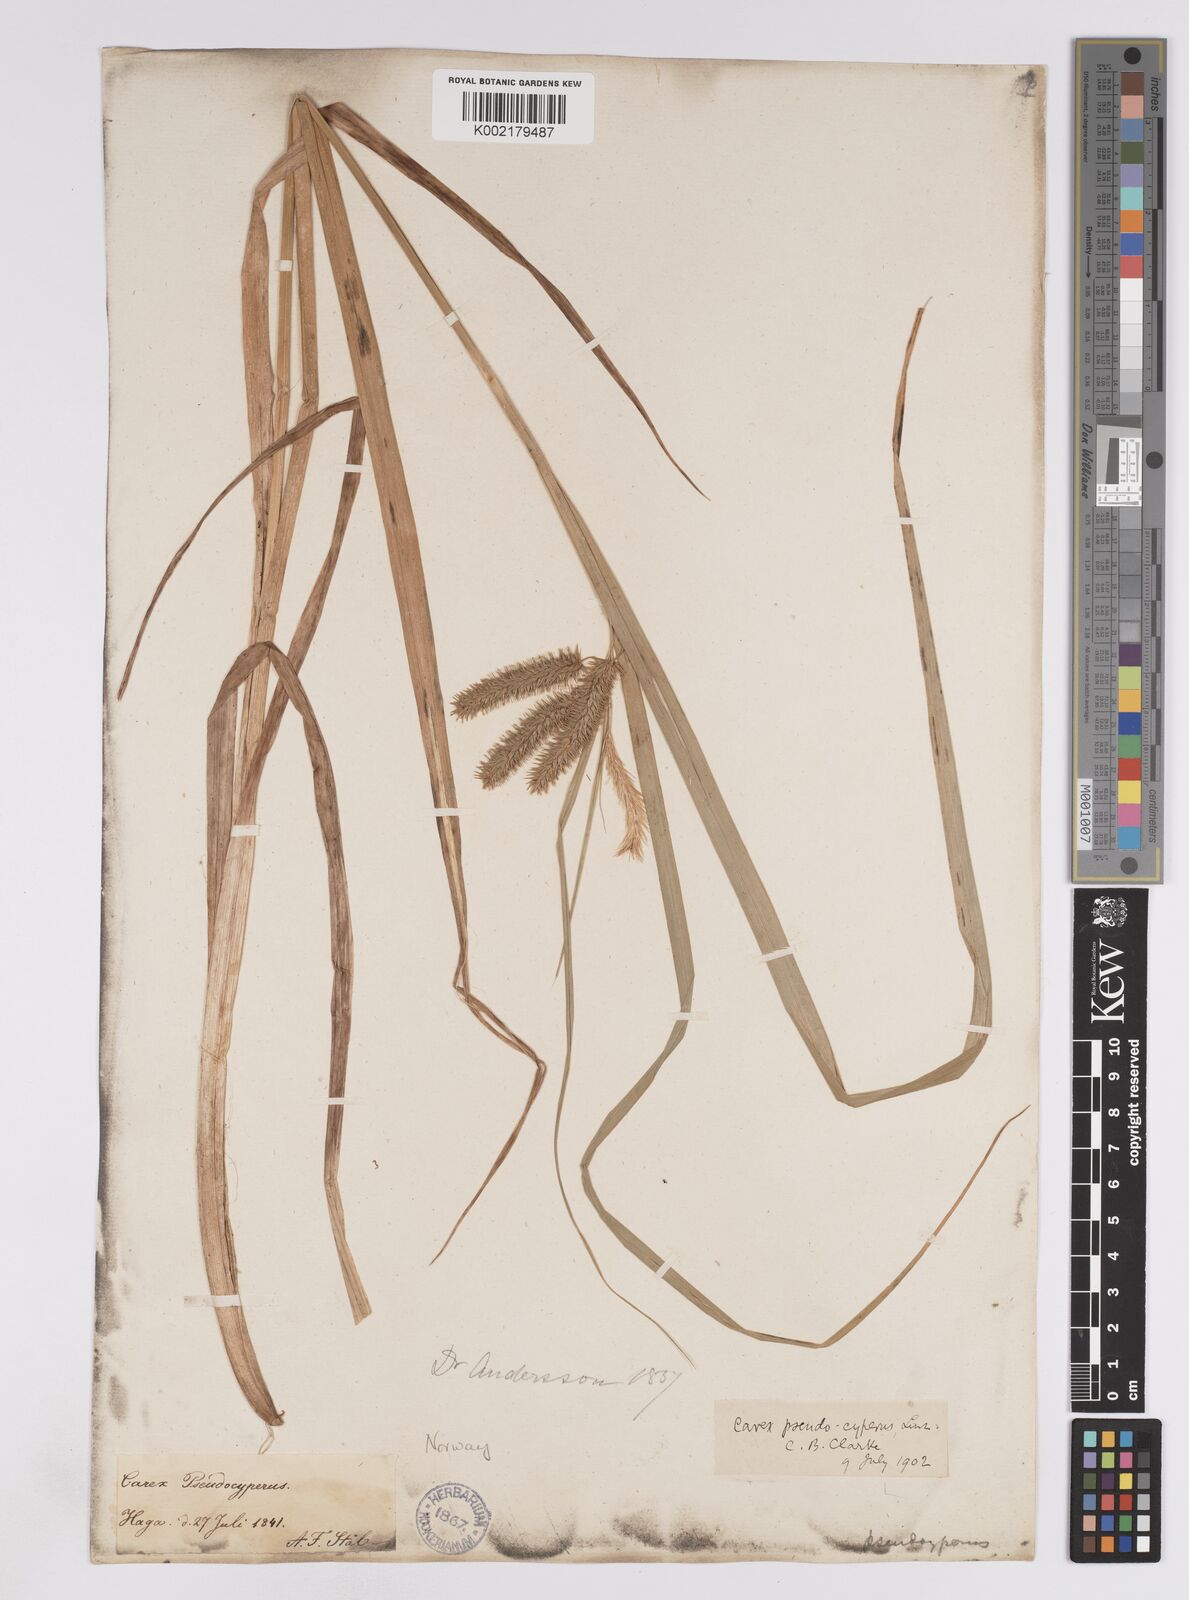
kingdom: Plantae
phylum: Tracheophyta
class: Liliopsida
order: Poales
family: Cyperaceae
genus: Carex
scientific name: Carex pseudocyperus
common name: Cyperus sedge
